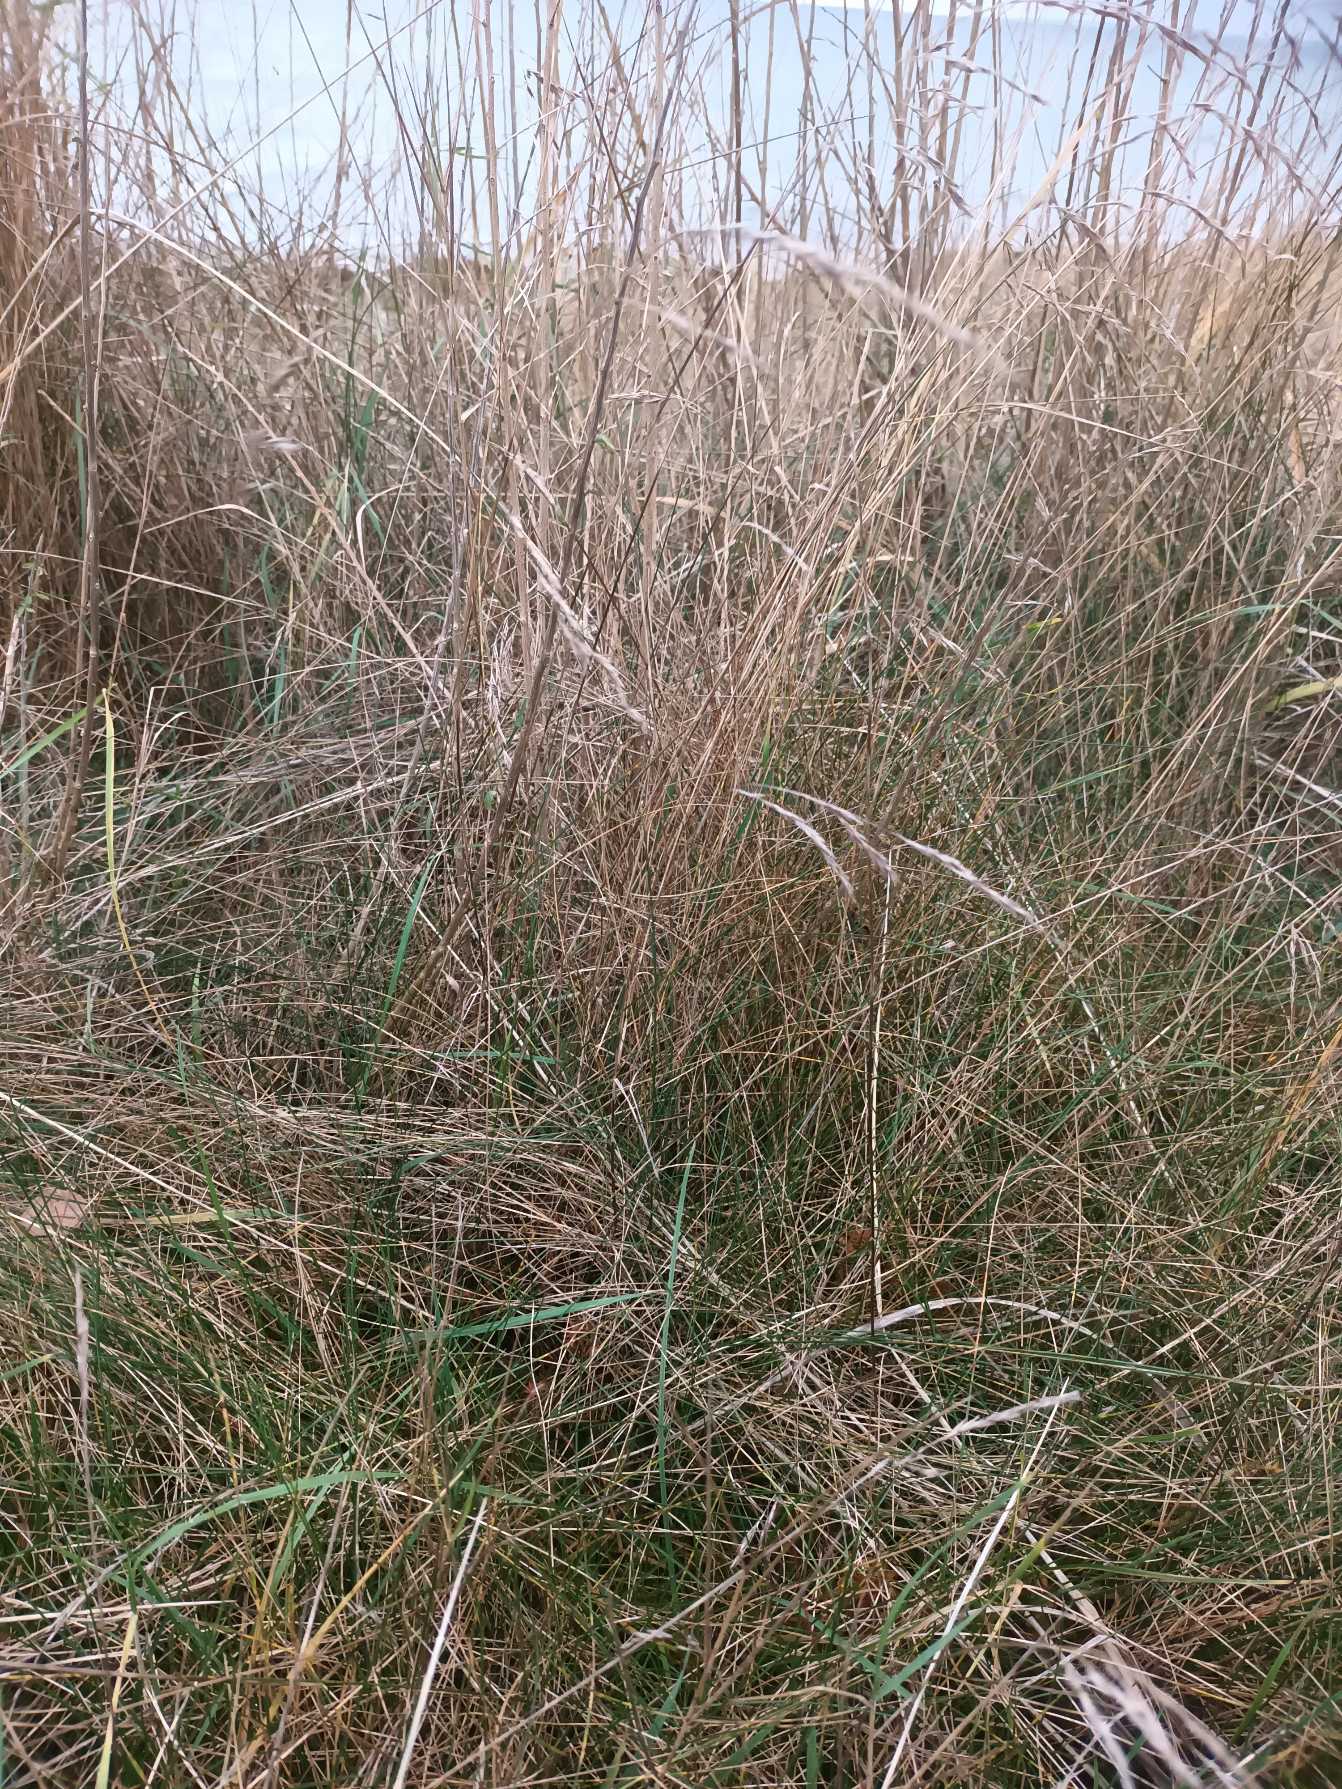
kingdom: Plantae
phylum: Tracheophyta
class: Liliopsida
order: Poales
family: Poaceae
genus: Festuca
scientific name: Festuca rubra
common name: Rød svingel
